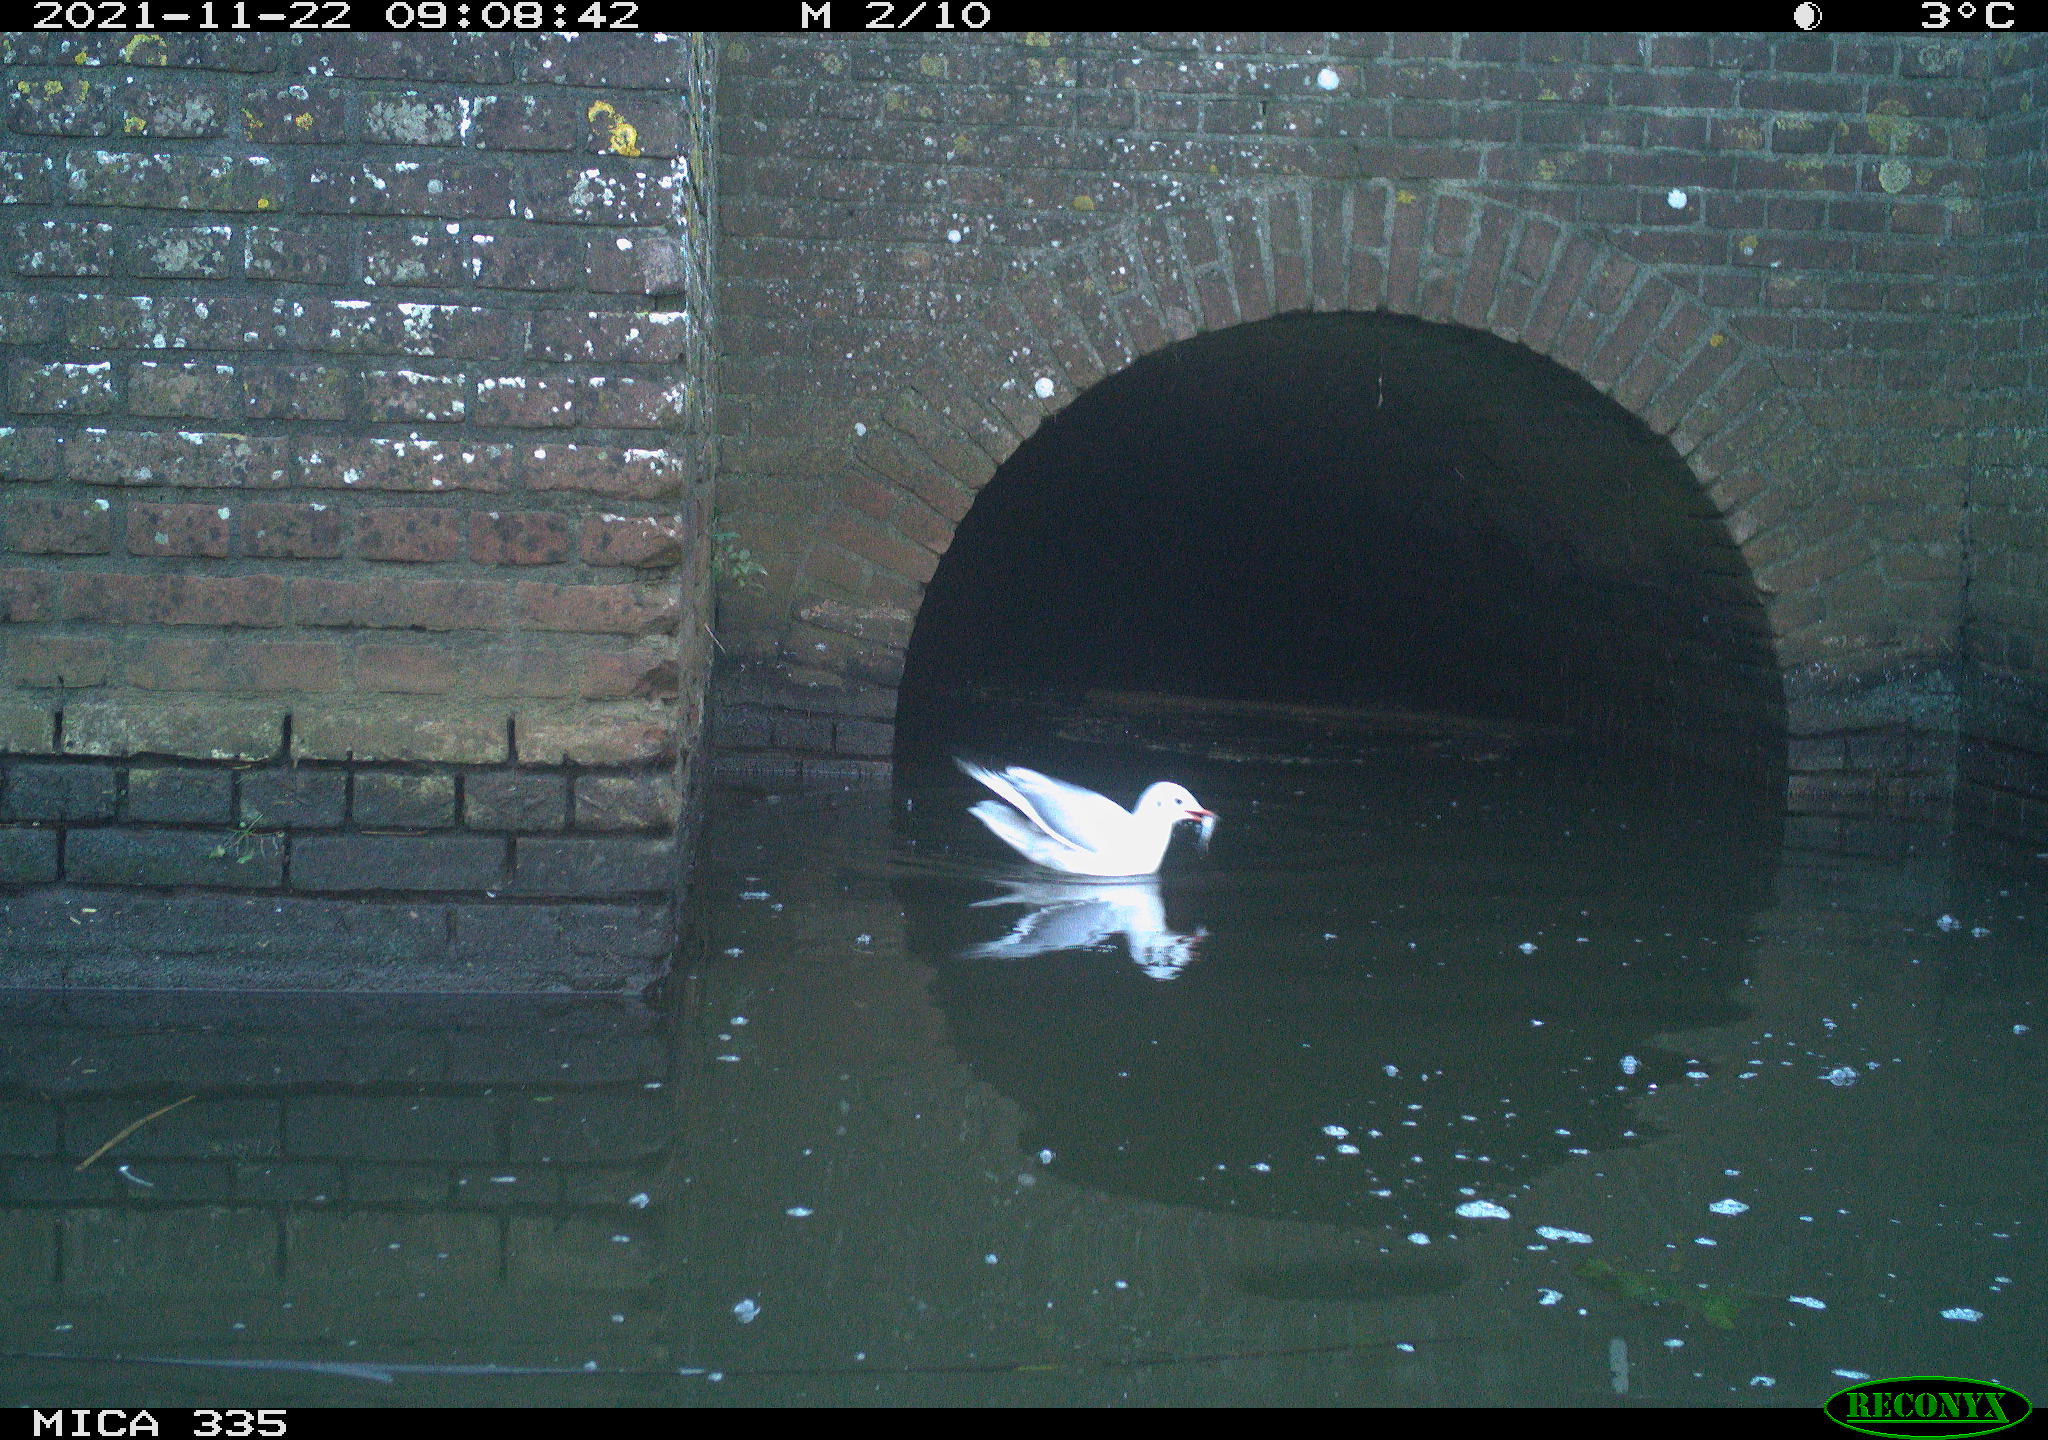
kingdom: Animalia
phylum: Chordata
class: Aves
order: Anseriformes
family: Anatidae
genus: Anas
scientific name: Anas platyrhynchos
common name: Mallard
